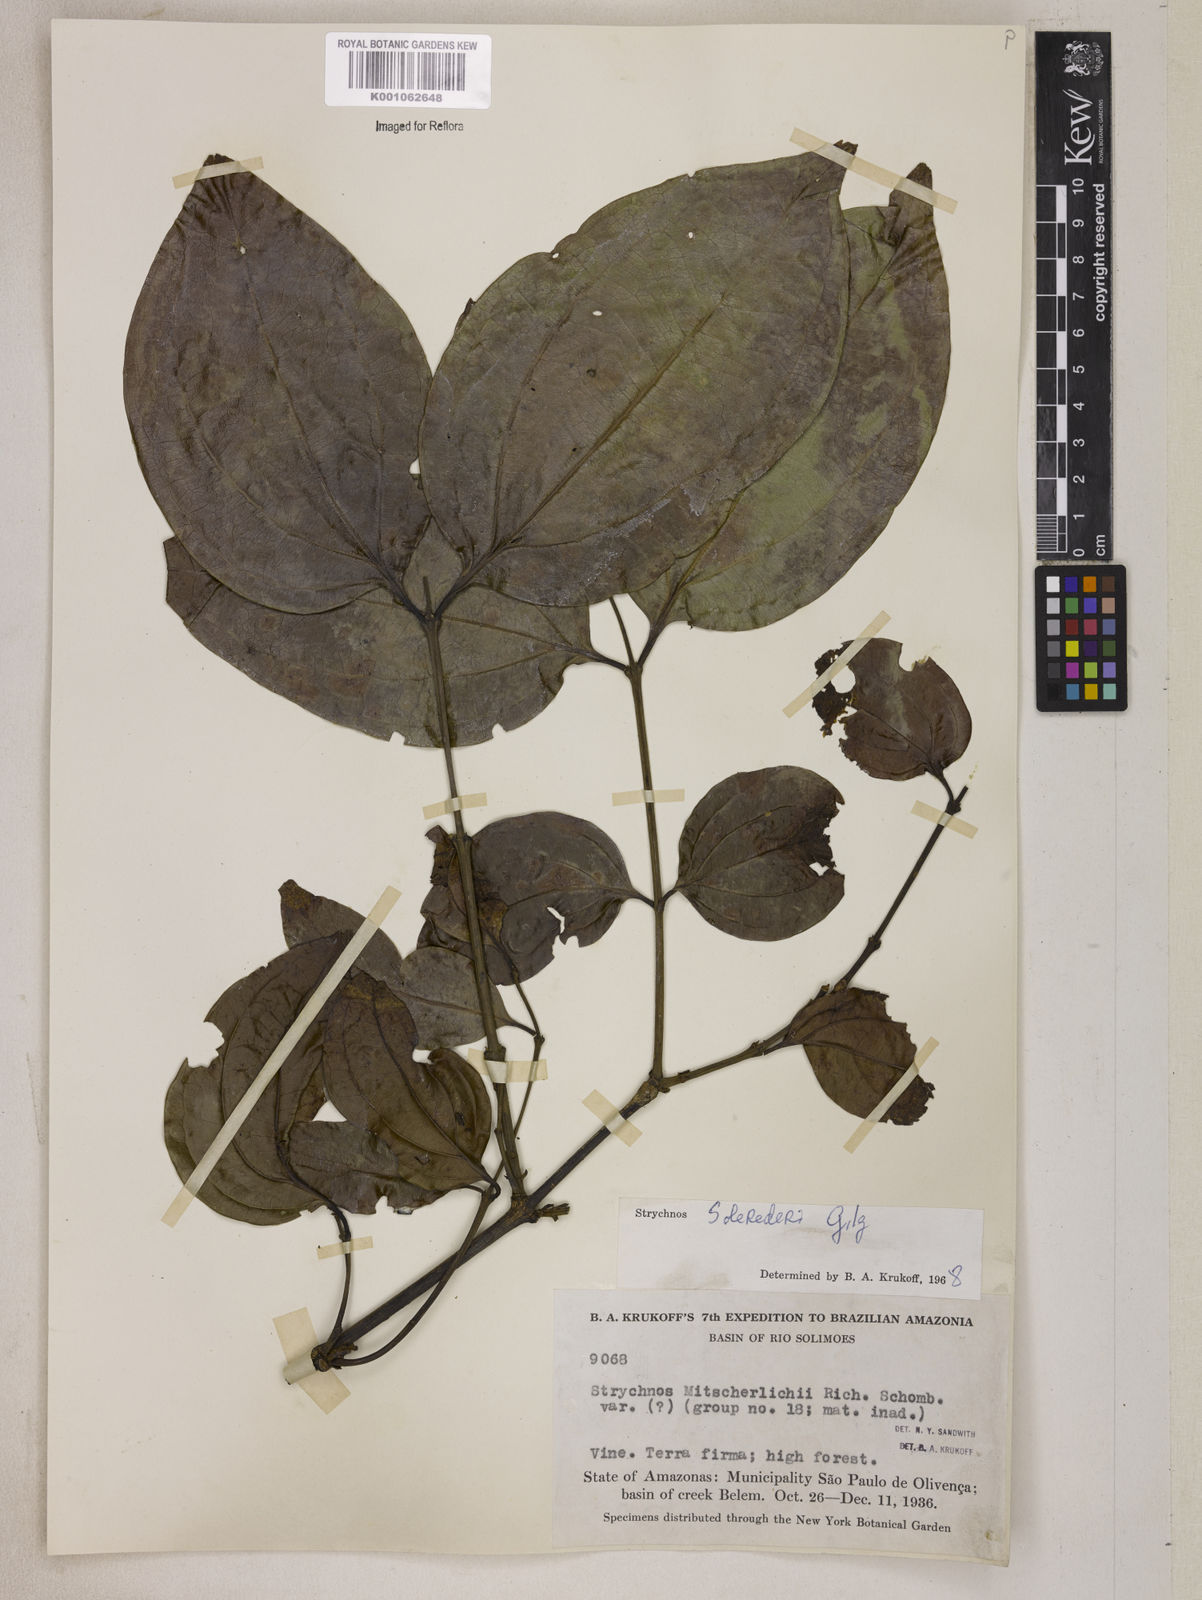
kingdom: Plantae
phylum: Tracheophyta
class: Magnoliopsida
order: Gentianales
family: Loganiaceae
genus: Strychnos
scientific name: Strychnos solerederi
